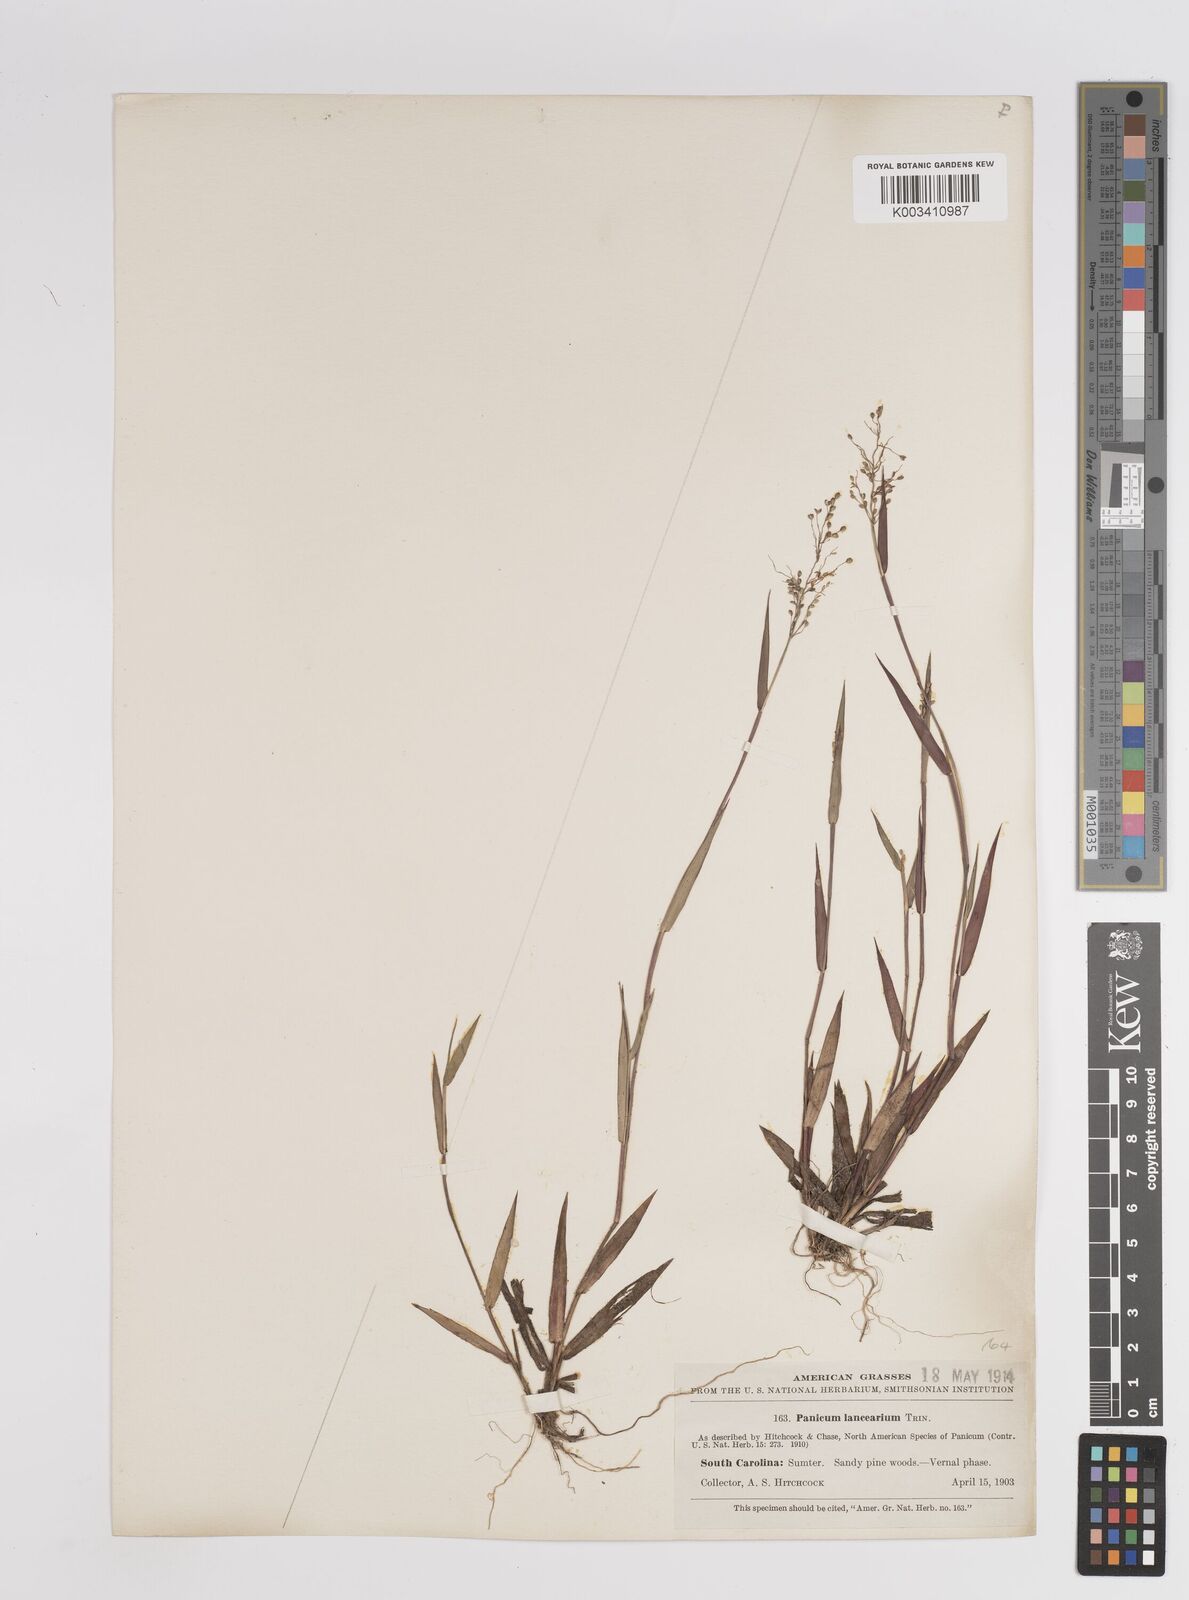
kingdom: Plantae
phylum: Tracheophyta
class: Liliopsida
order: Poales
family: Poaceae
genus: Dichanthelium
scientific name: Dichanthelium portoricense
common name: American panicgrass
